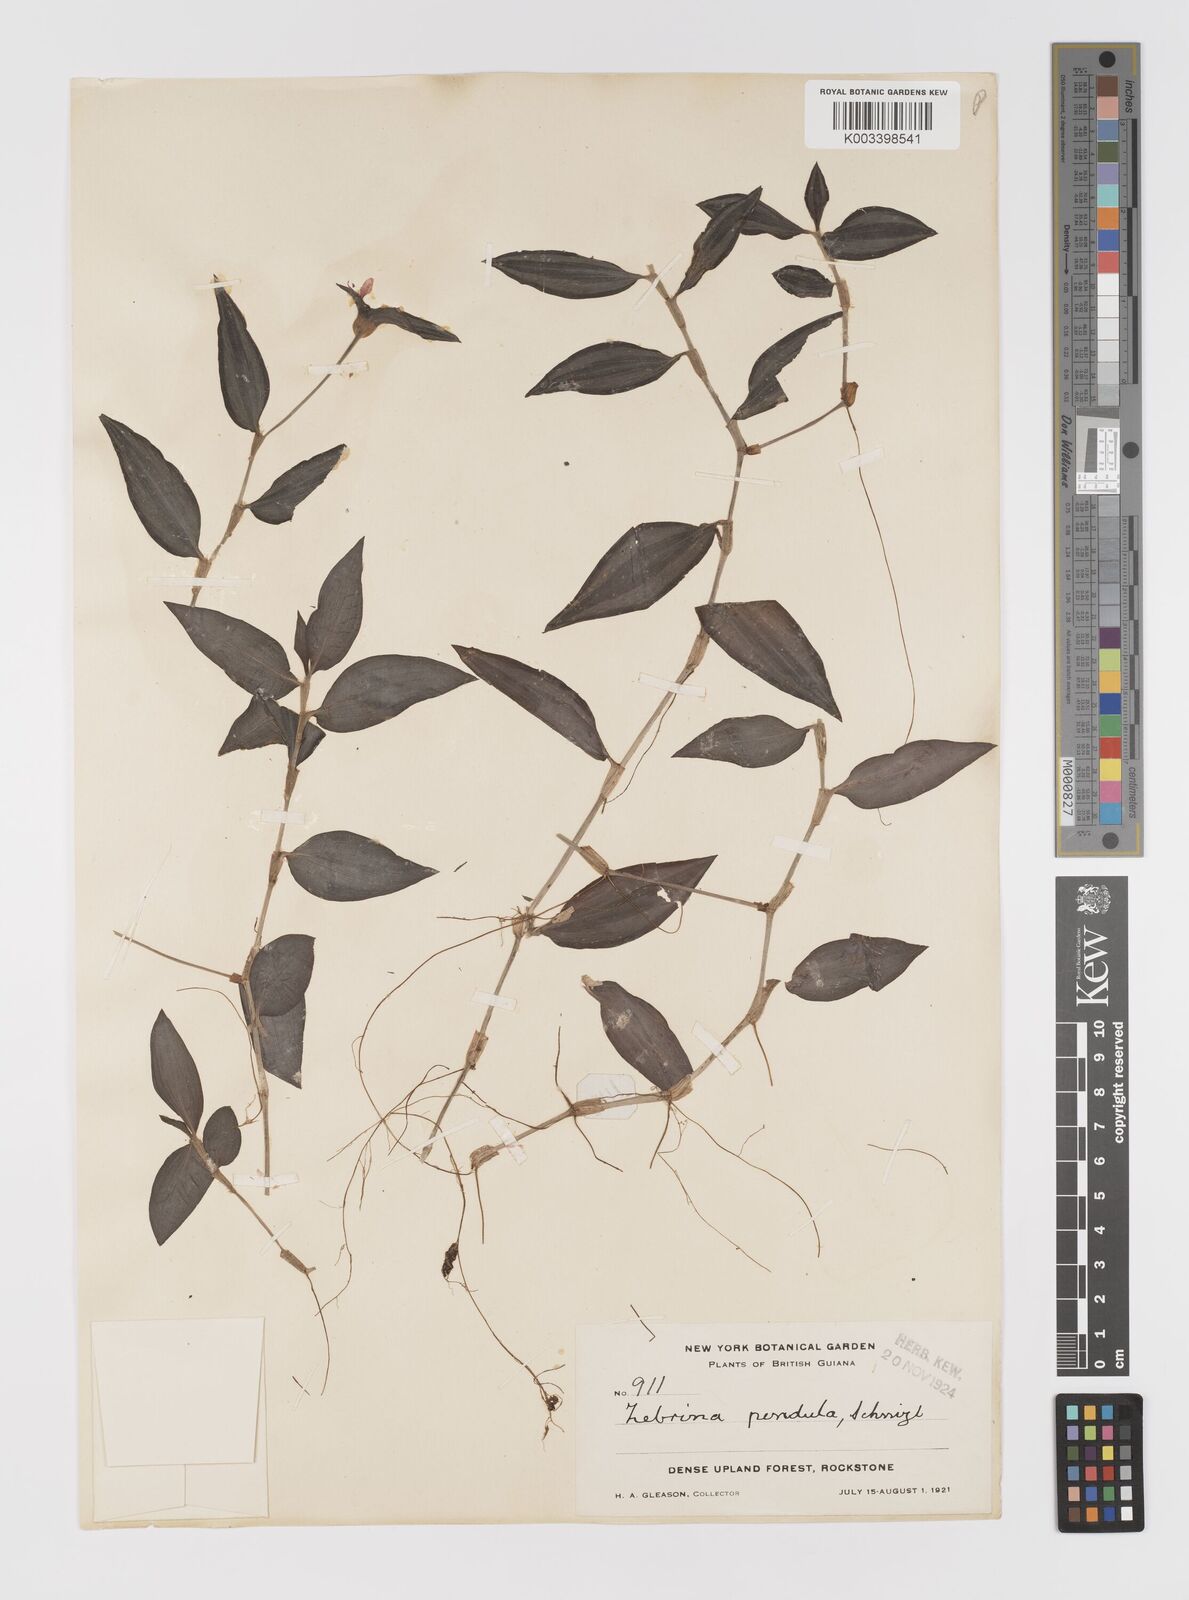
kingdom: Plantae
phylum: Tracheophyta
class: Liliopsida
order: Commelinales
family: Commelinaceae
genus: Tradescantia
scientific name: Tradescantia zebrina
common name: Inchplant
